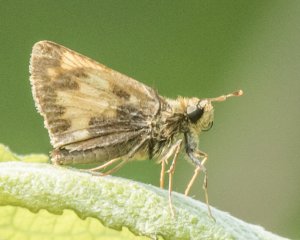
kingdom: Animalia
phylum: Arthropoda
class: Insecta
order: Lepidoptera
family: Hesperiidae
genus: Lon
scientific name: Lon hobomok
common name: Hobomok Skipper
